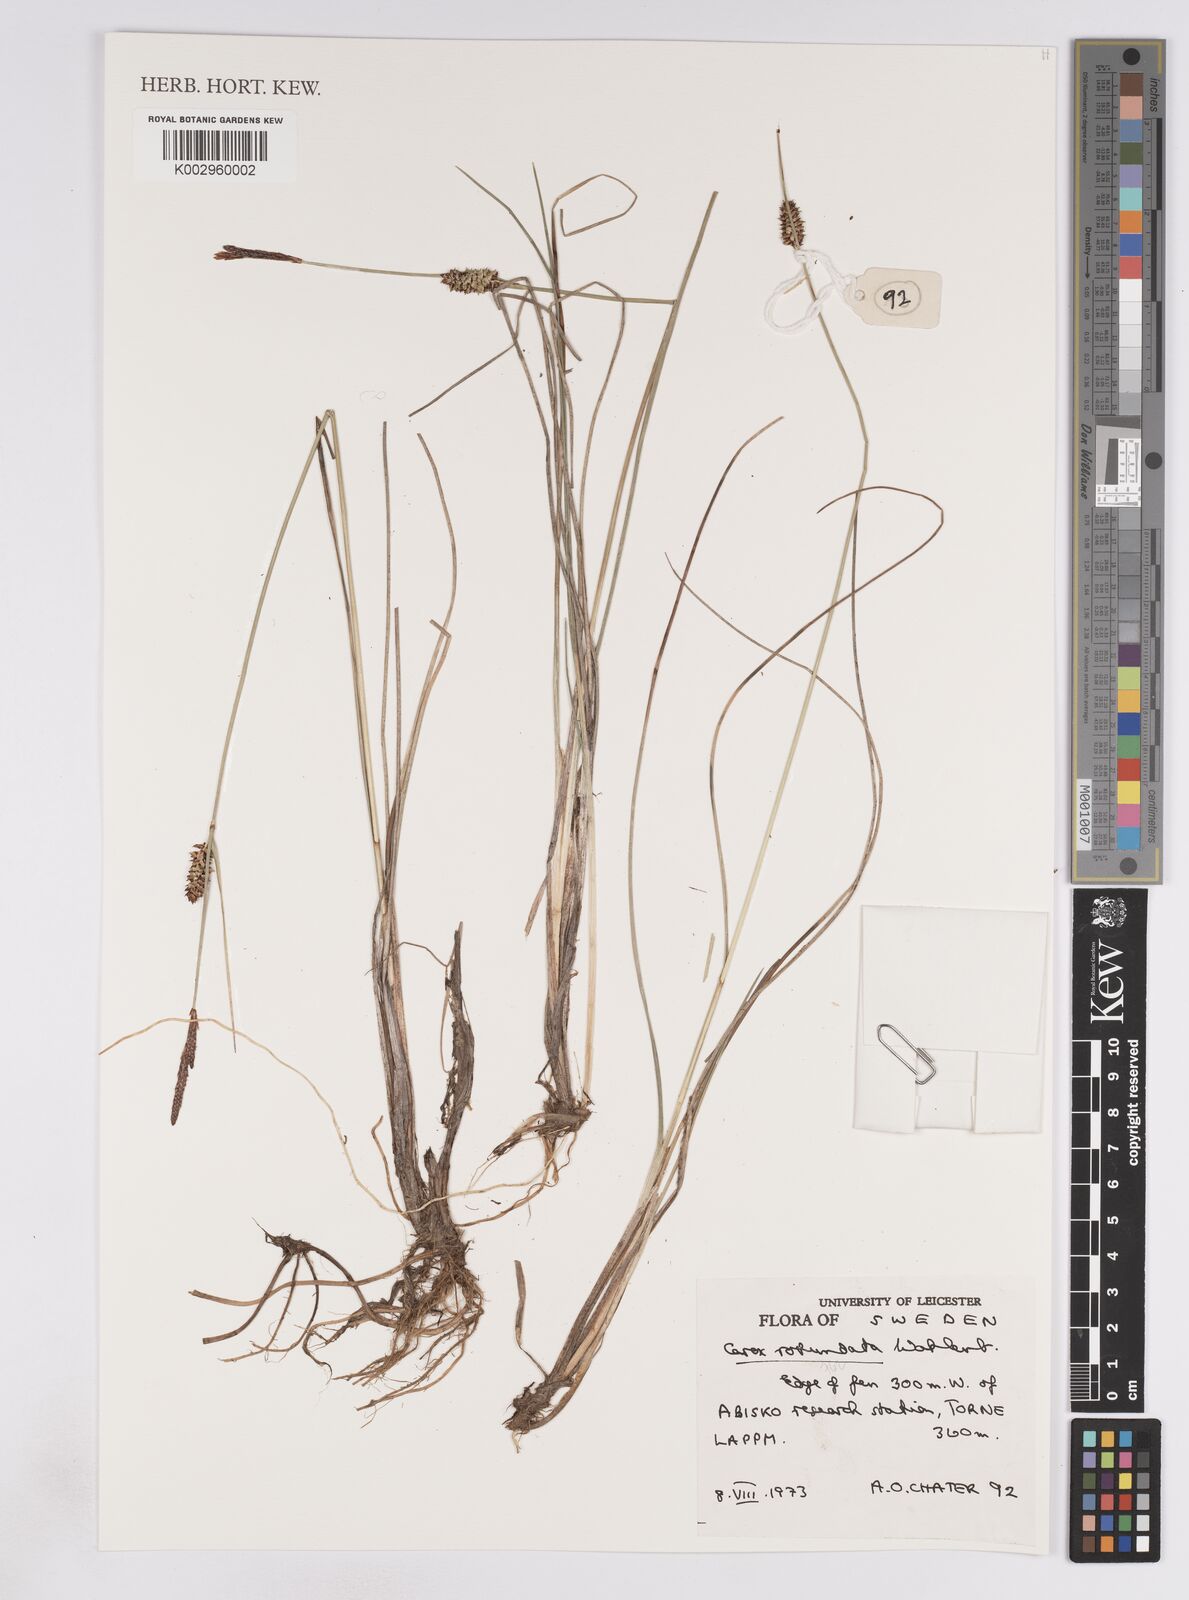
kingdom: Plantae
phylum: Tracheophyta
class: Liliopsida
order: Poales
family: Cyperaceae
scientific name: Cyperaceae
